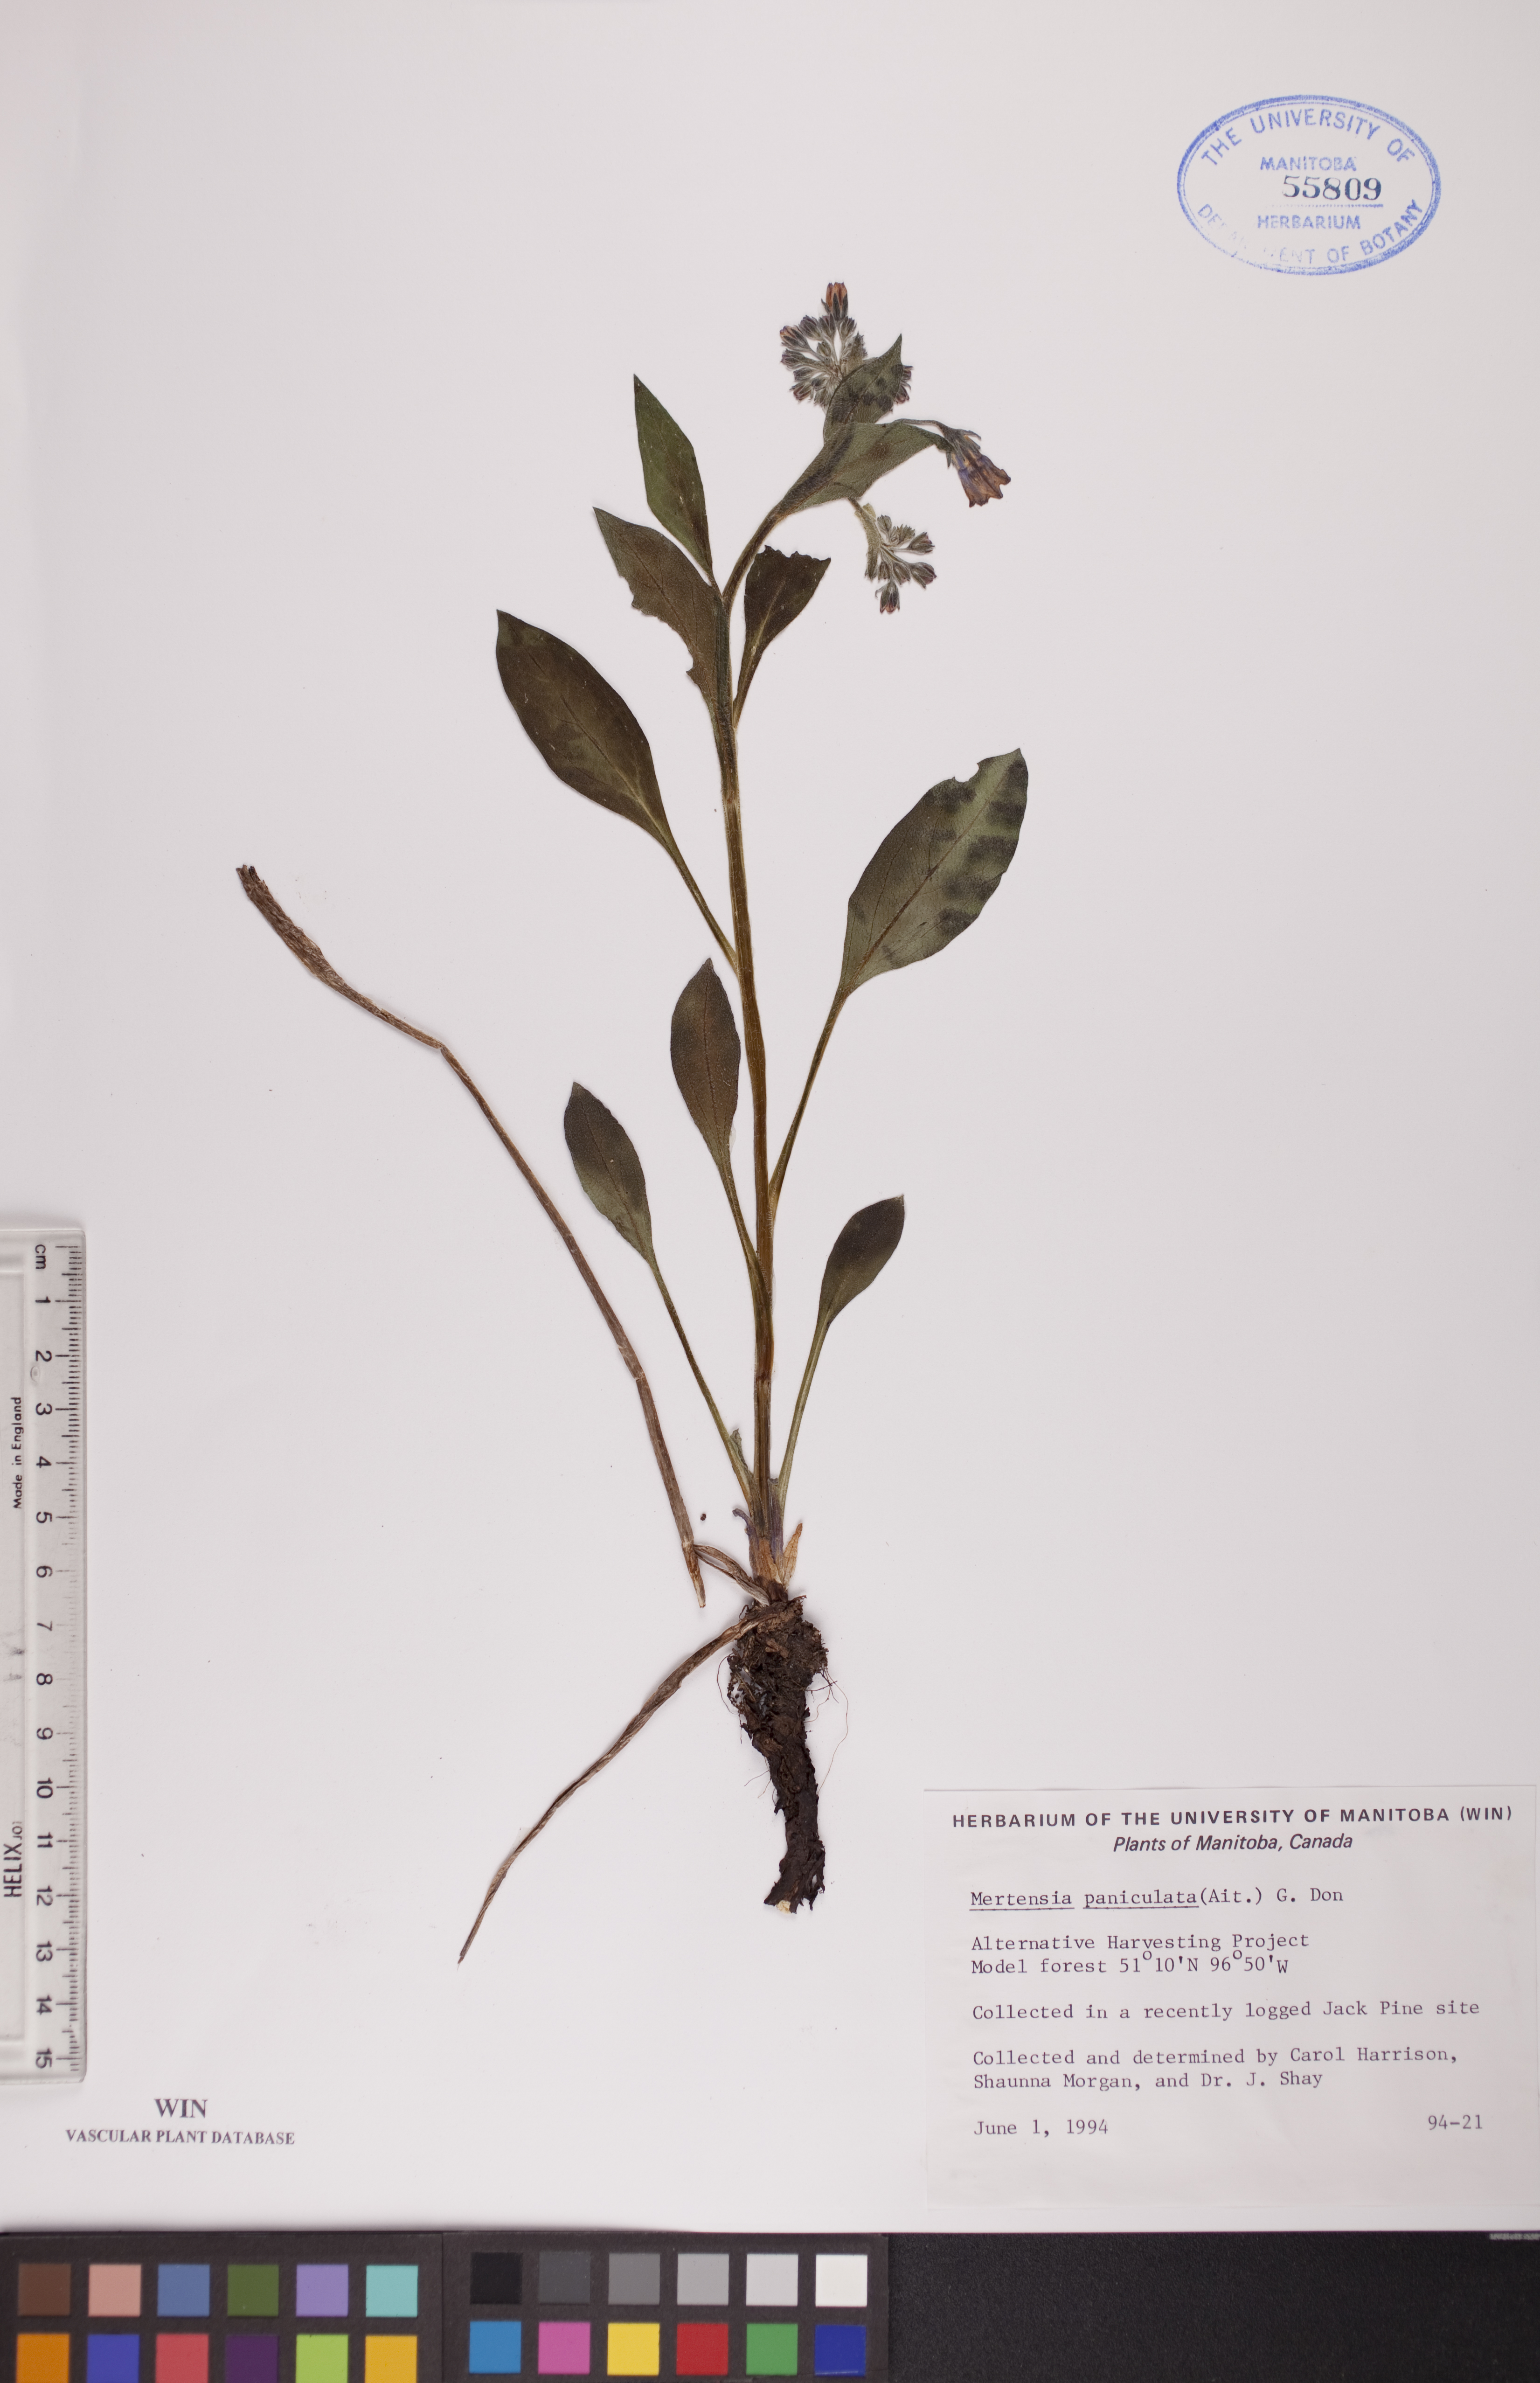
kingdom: Plantae
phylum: Tracheophyta
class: Magnoliopsida
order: Boraginales
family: Boraginaceae
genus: Mertensia
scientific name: Mertensia paniculata
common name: Panicled bluebells
